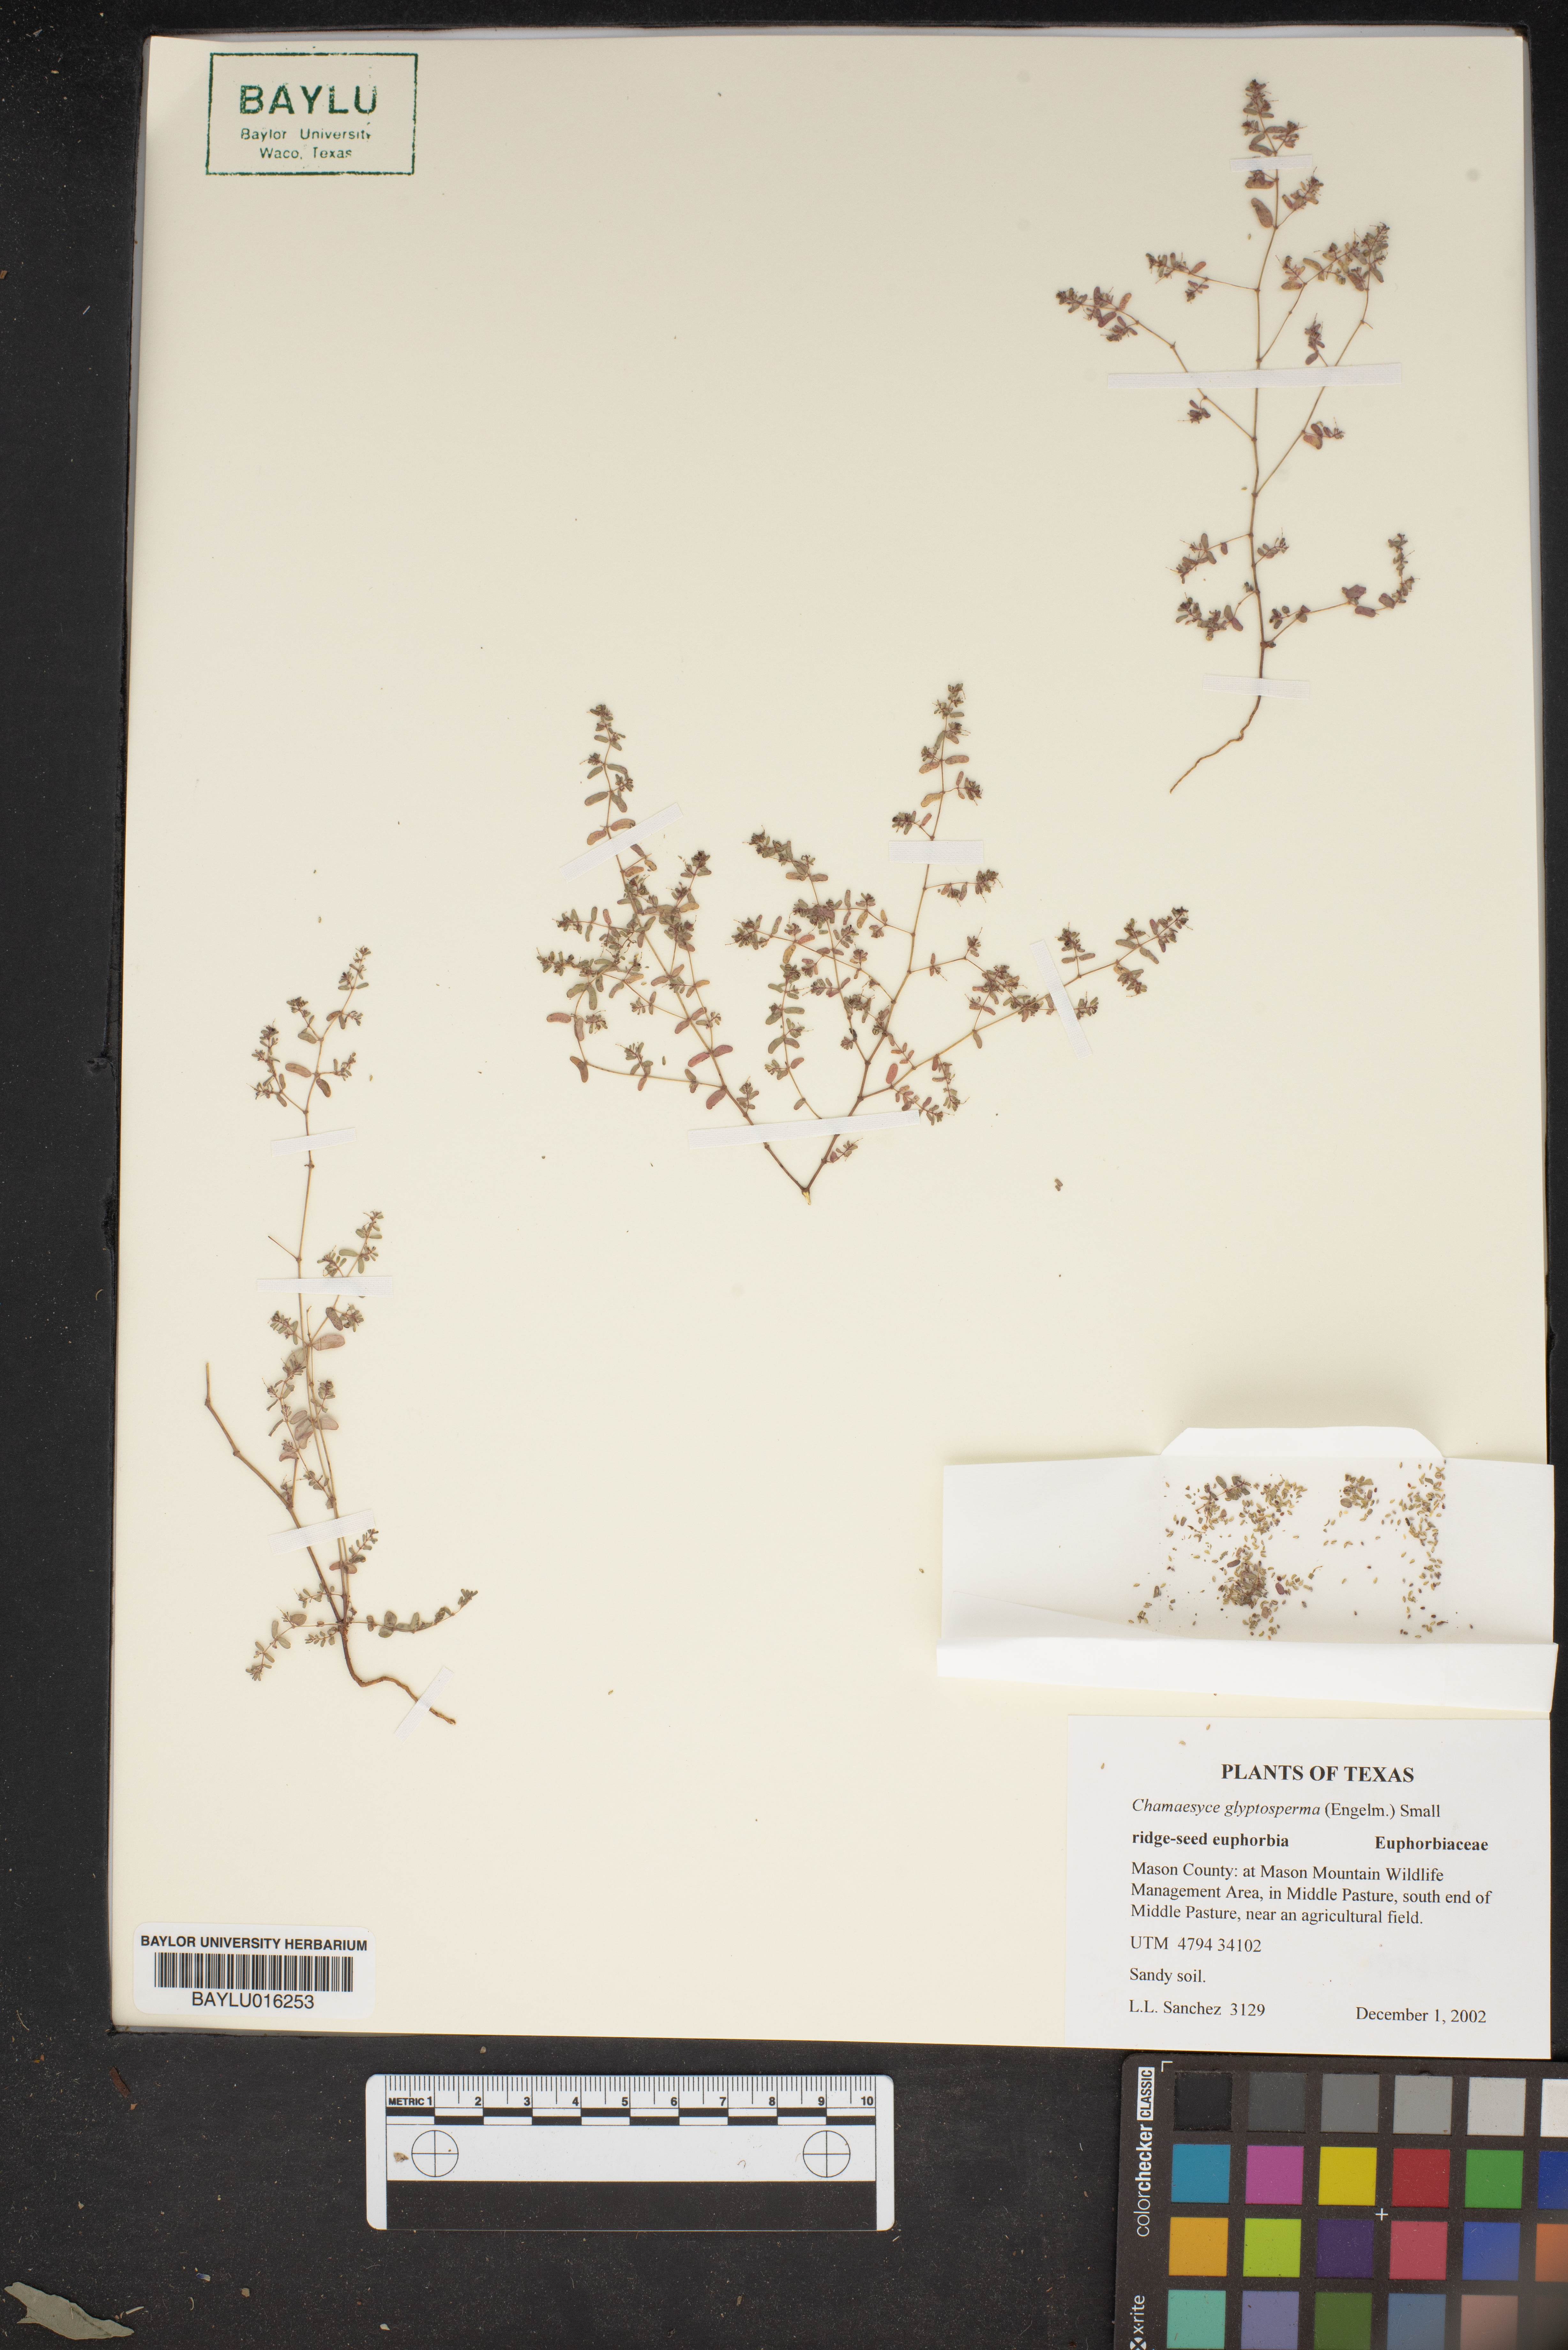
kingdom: Plantae
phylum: Tracheophyta
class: Magnoliopsida
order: Malpighiales
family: Euphorbiaceae
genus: Euphorbia
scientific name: Euphorbia glyptosperma
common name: Corrugate-seeded spurge
